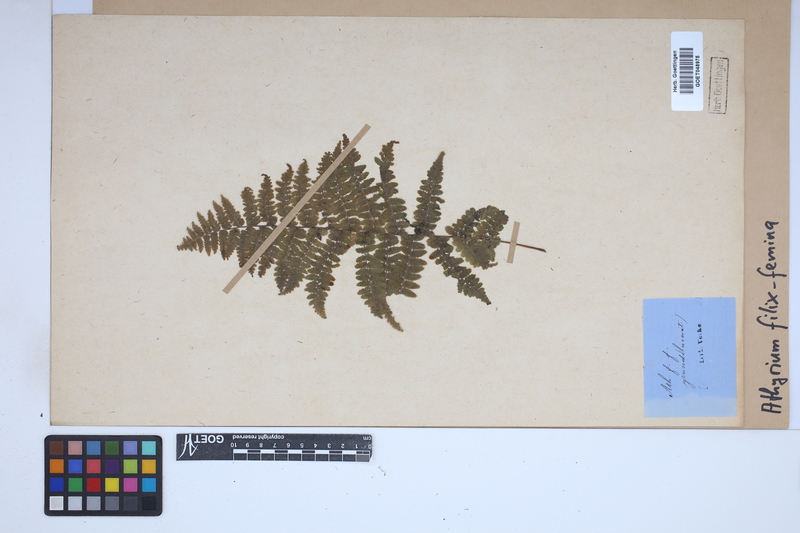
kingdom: Plantae
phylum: Tracheophyta
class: Polypodiopsida
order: Polypodiales
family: Athyriaceae
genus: Athyrium
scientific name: Athyrium filix-femina
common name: Lady fern
